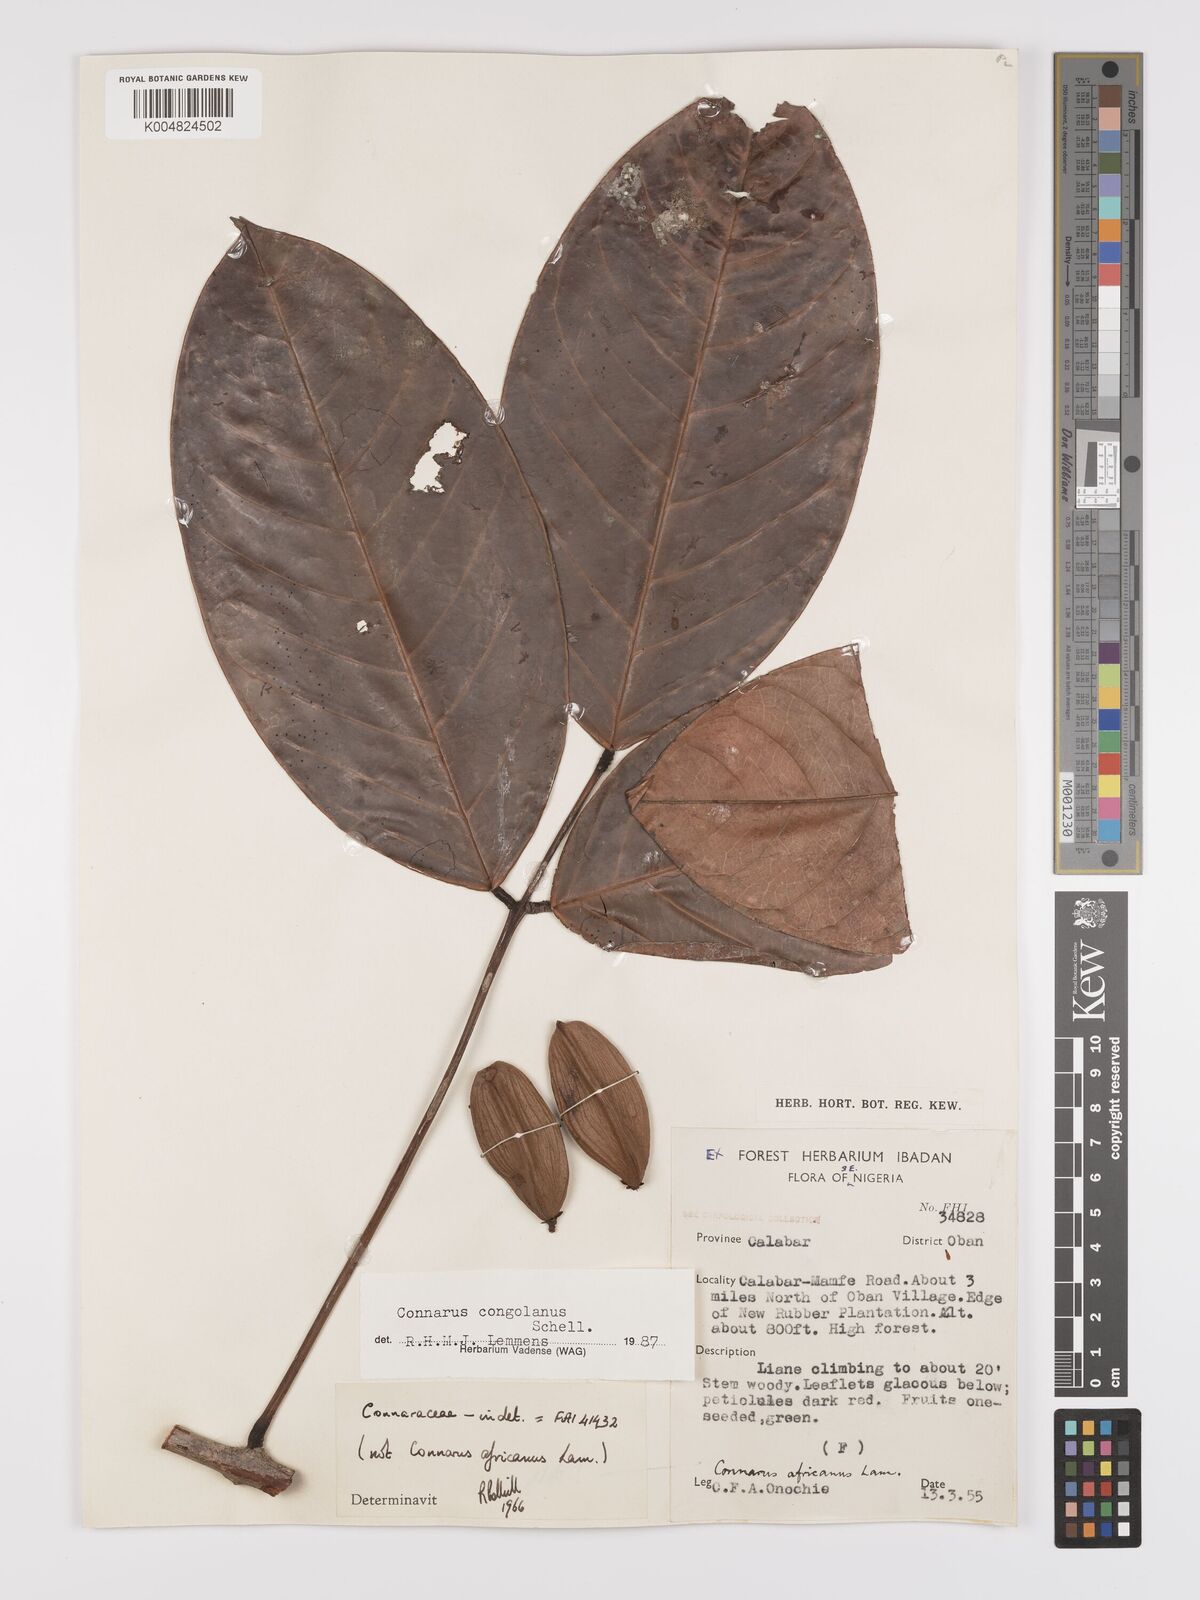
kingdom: Plantae
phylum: Tracheophyta
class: Magnoliopsida
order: Oxalidales
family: Connaraceae
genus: Connarus
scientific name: Connarus congolanus
